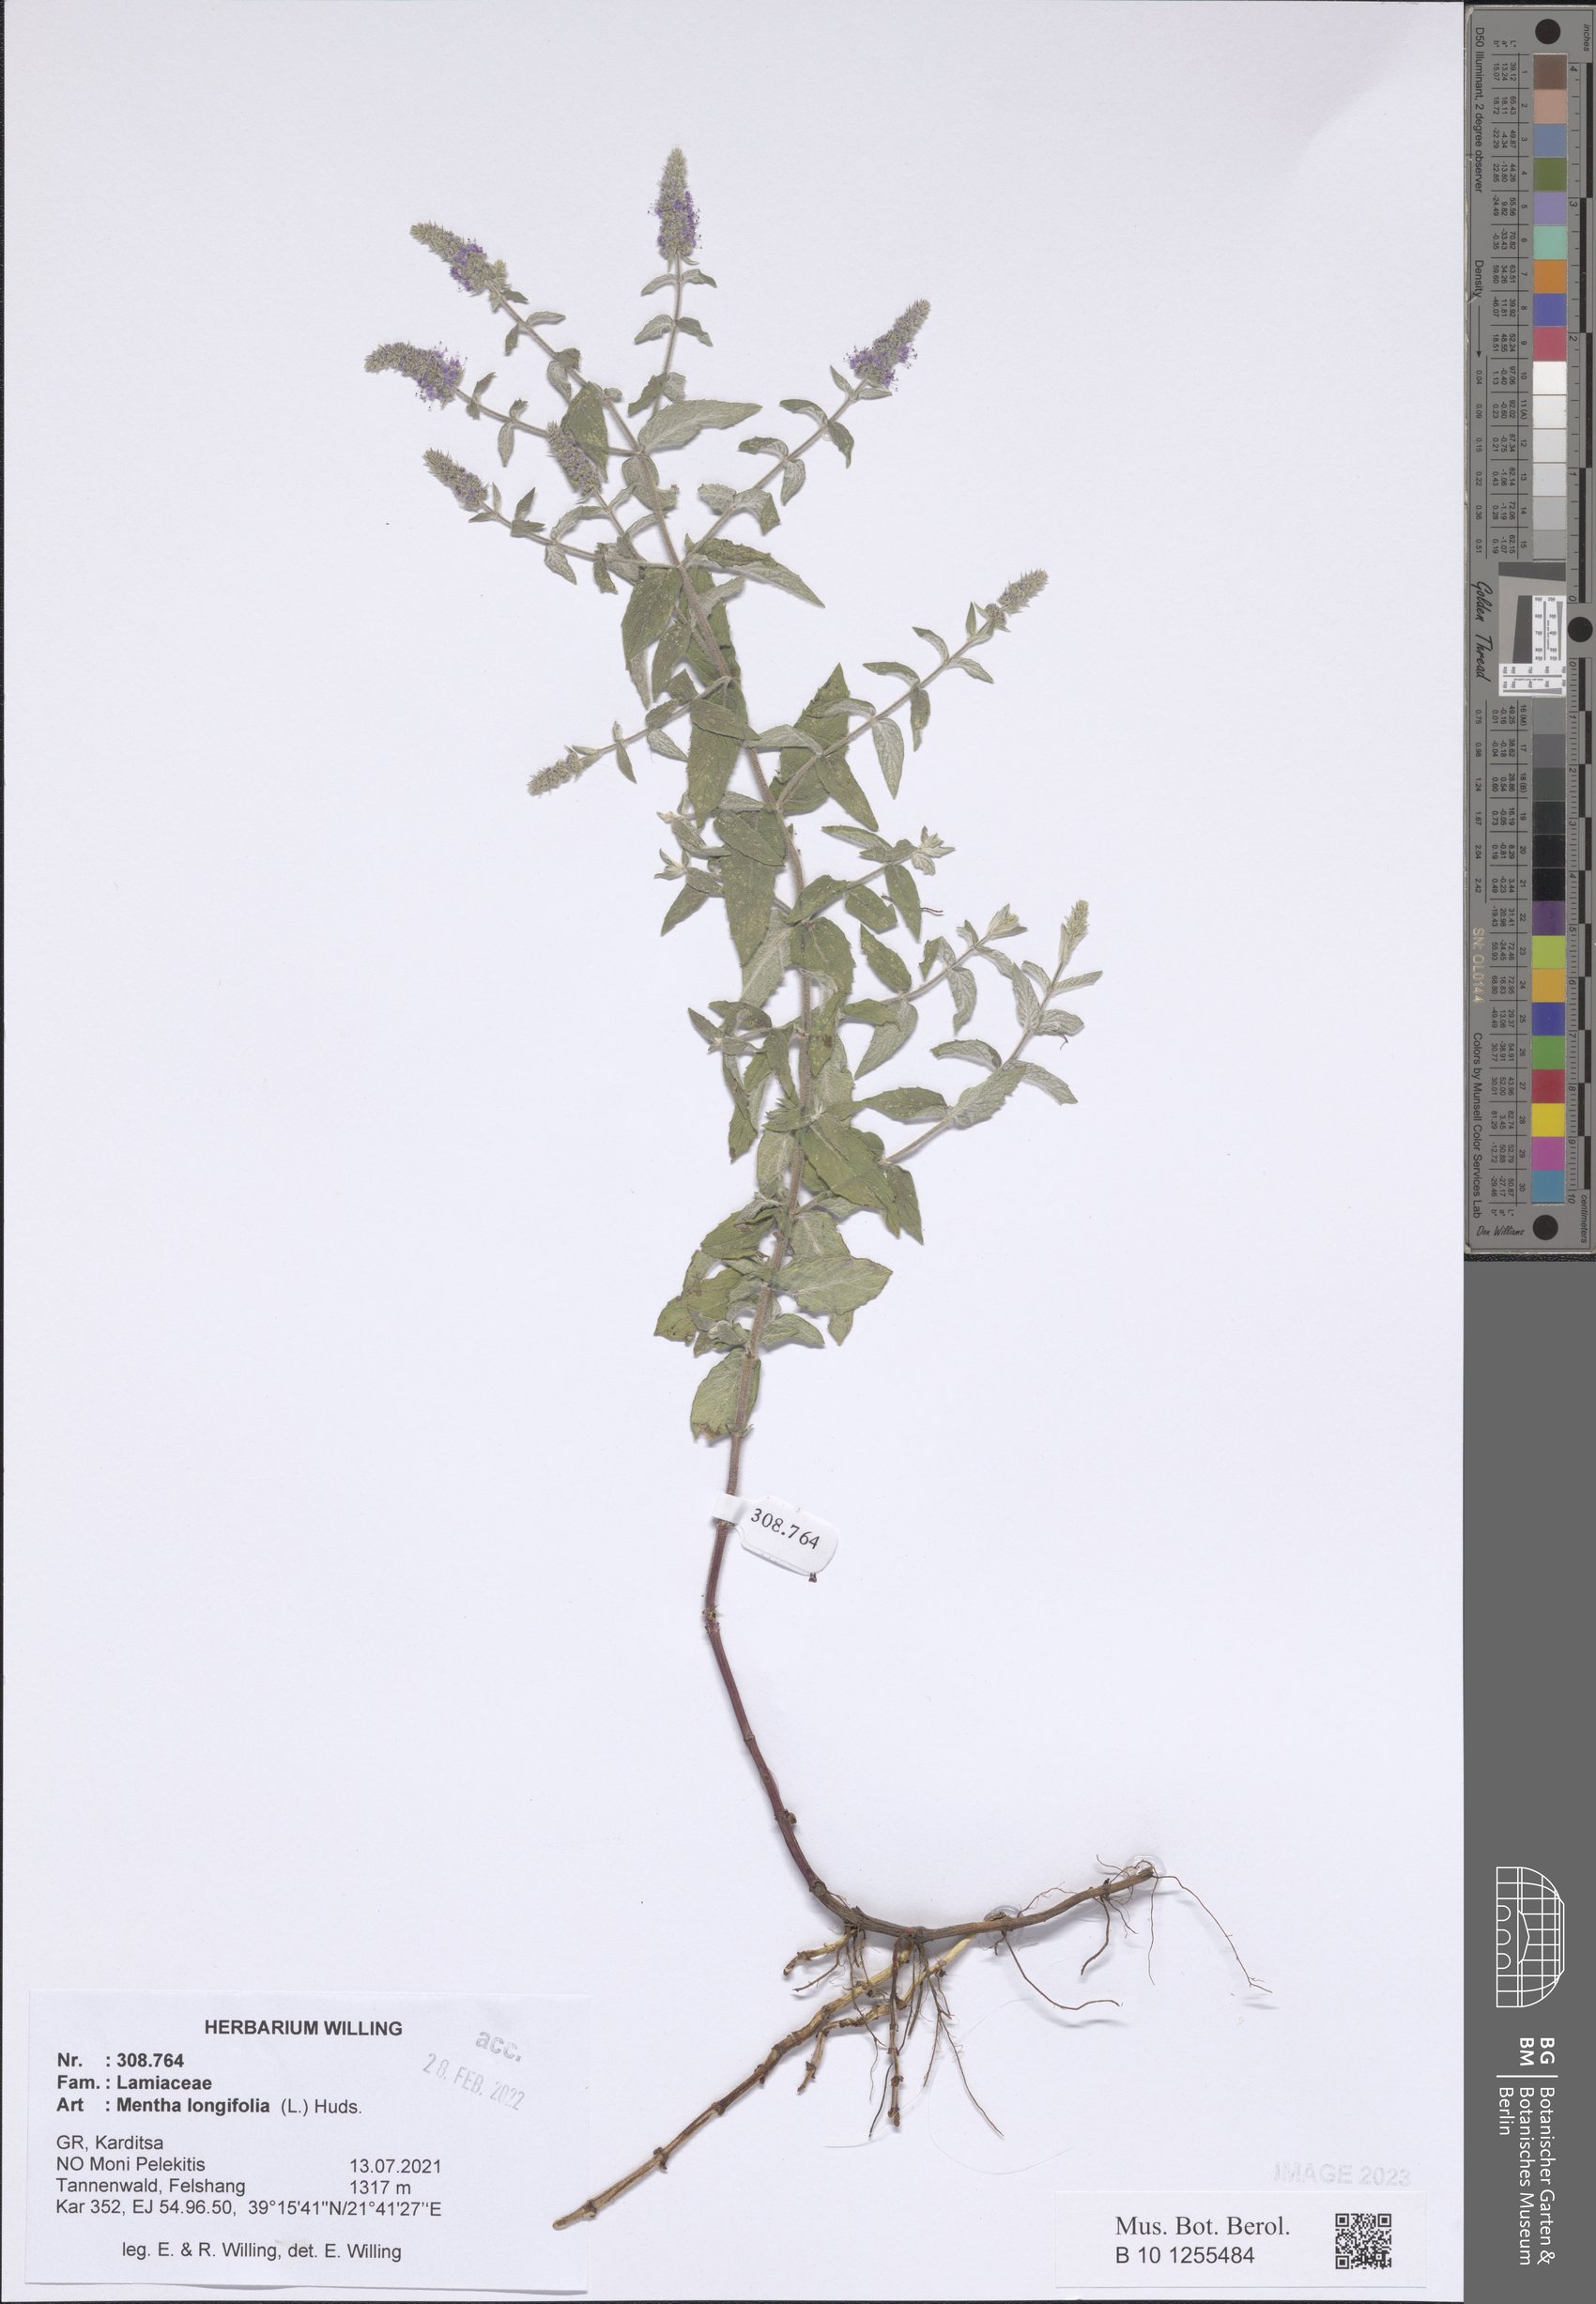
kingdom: Plantae
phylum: Tracheophyta
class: Magnoliopsida
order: Lamiales
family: Lamiaceae
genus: Mentha
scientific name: Mentha longifolia
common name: Horse mint
